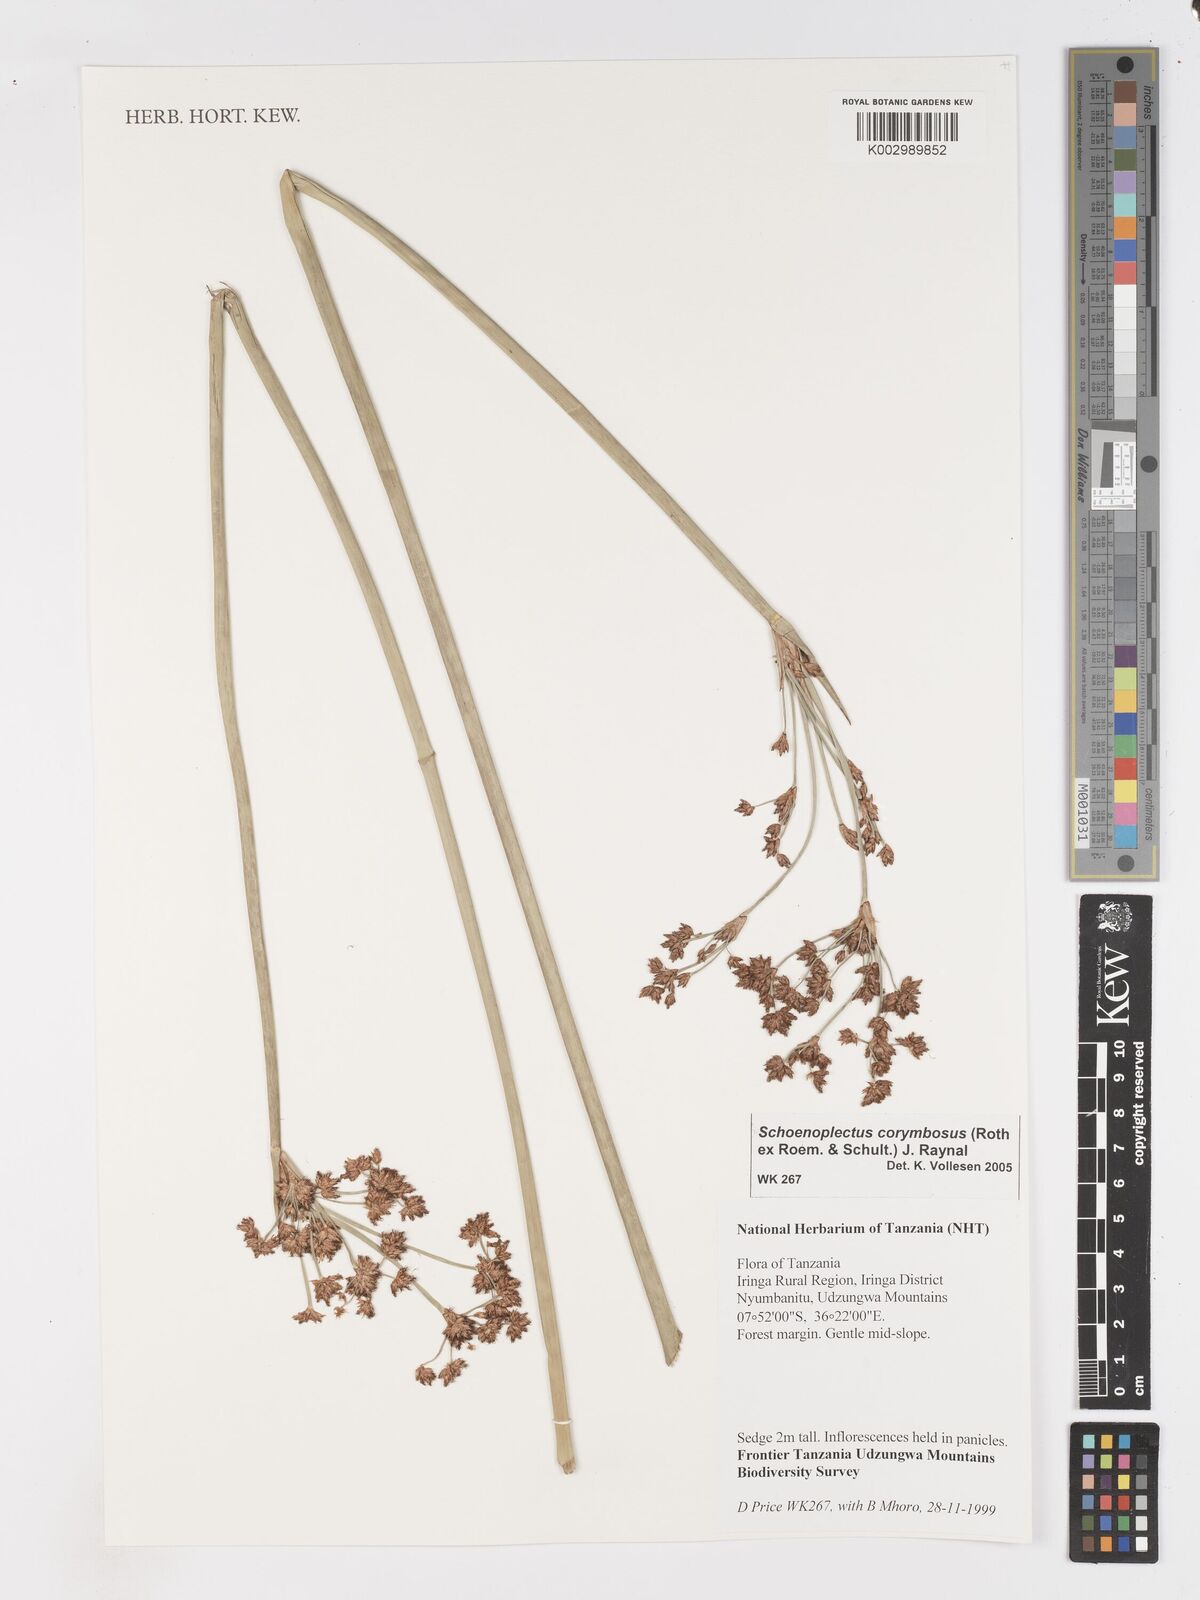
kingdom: Plantae
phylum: Tracheophyta
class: Liliopsida
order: Poales
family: Cyperaceae
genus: Schoenoplectiella
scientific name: Schoenoplectiella corymbosa
